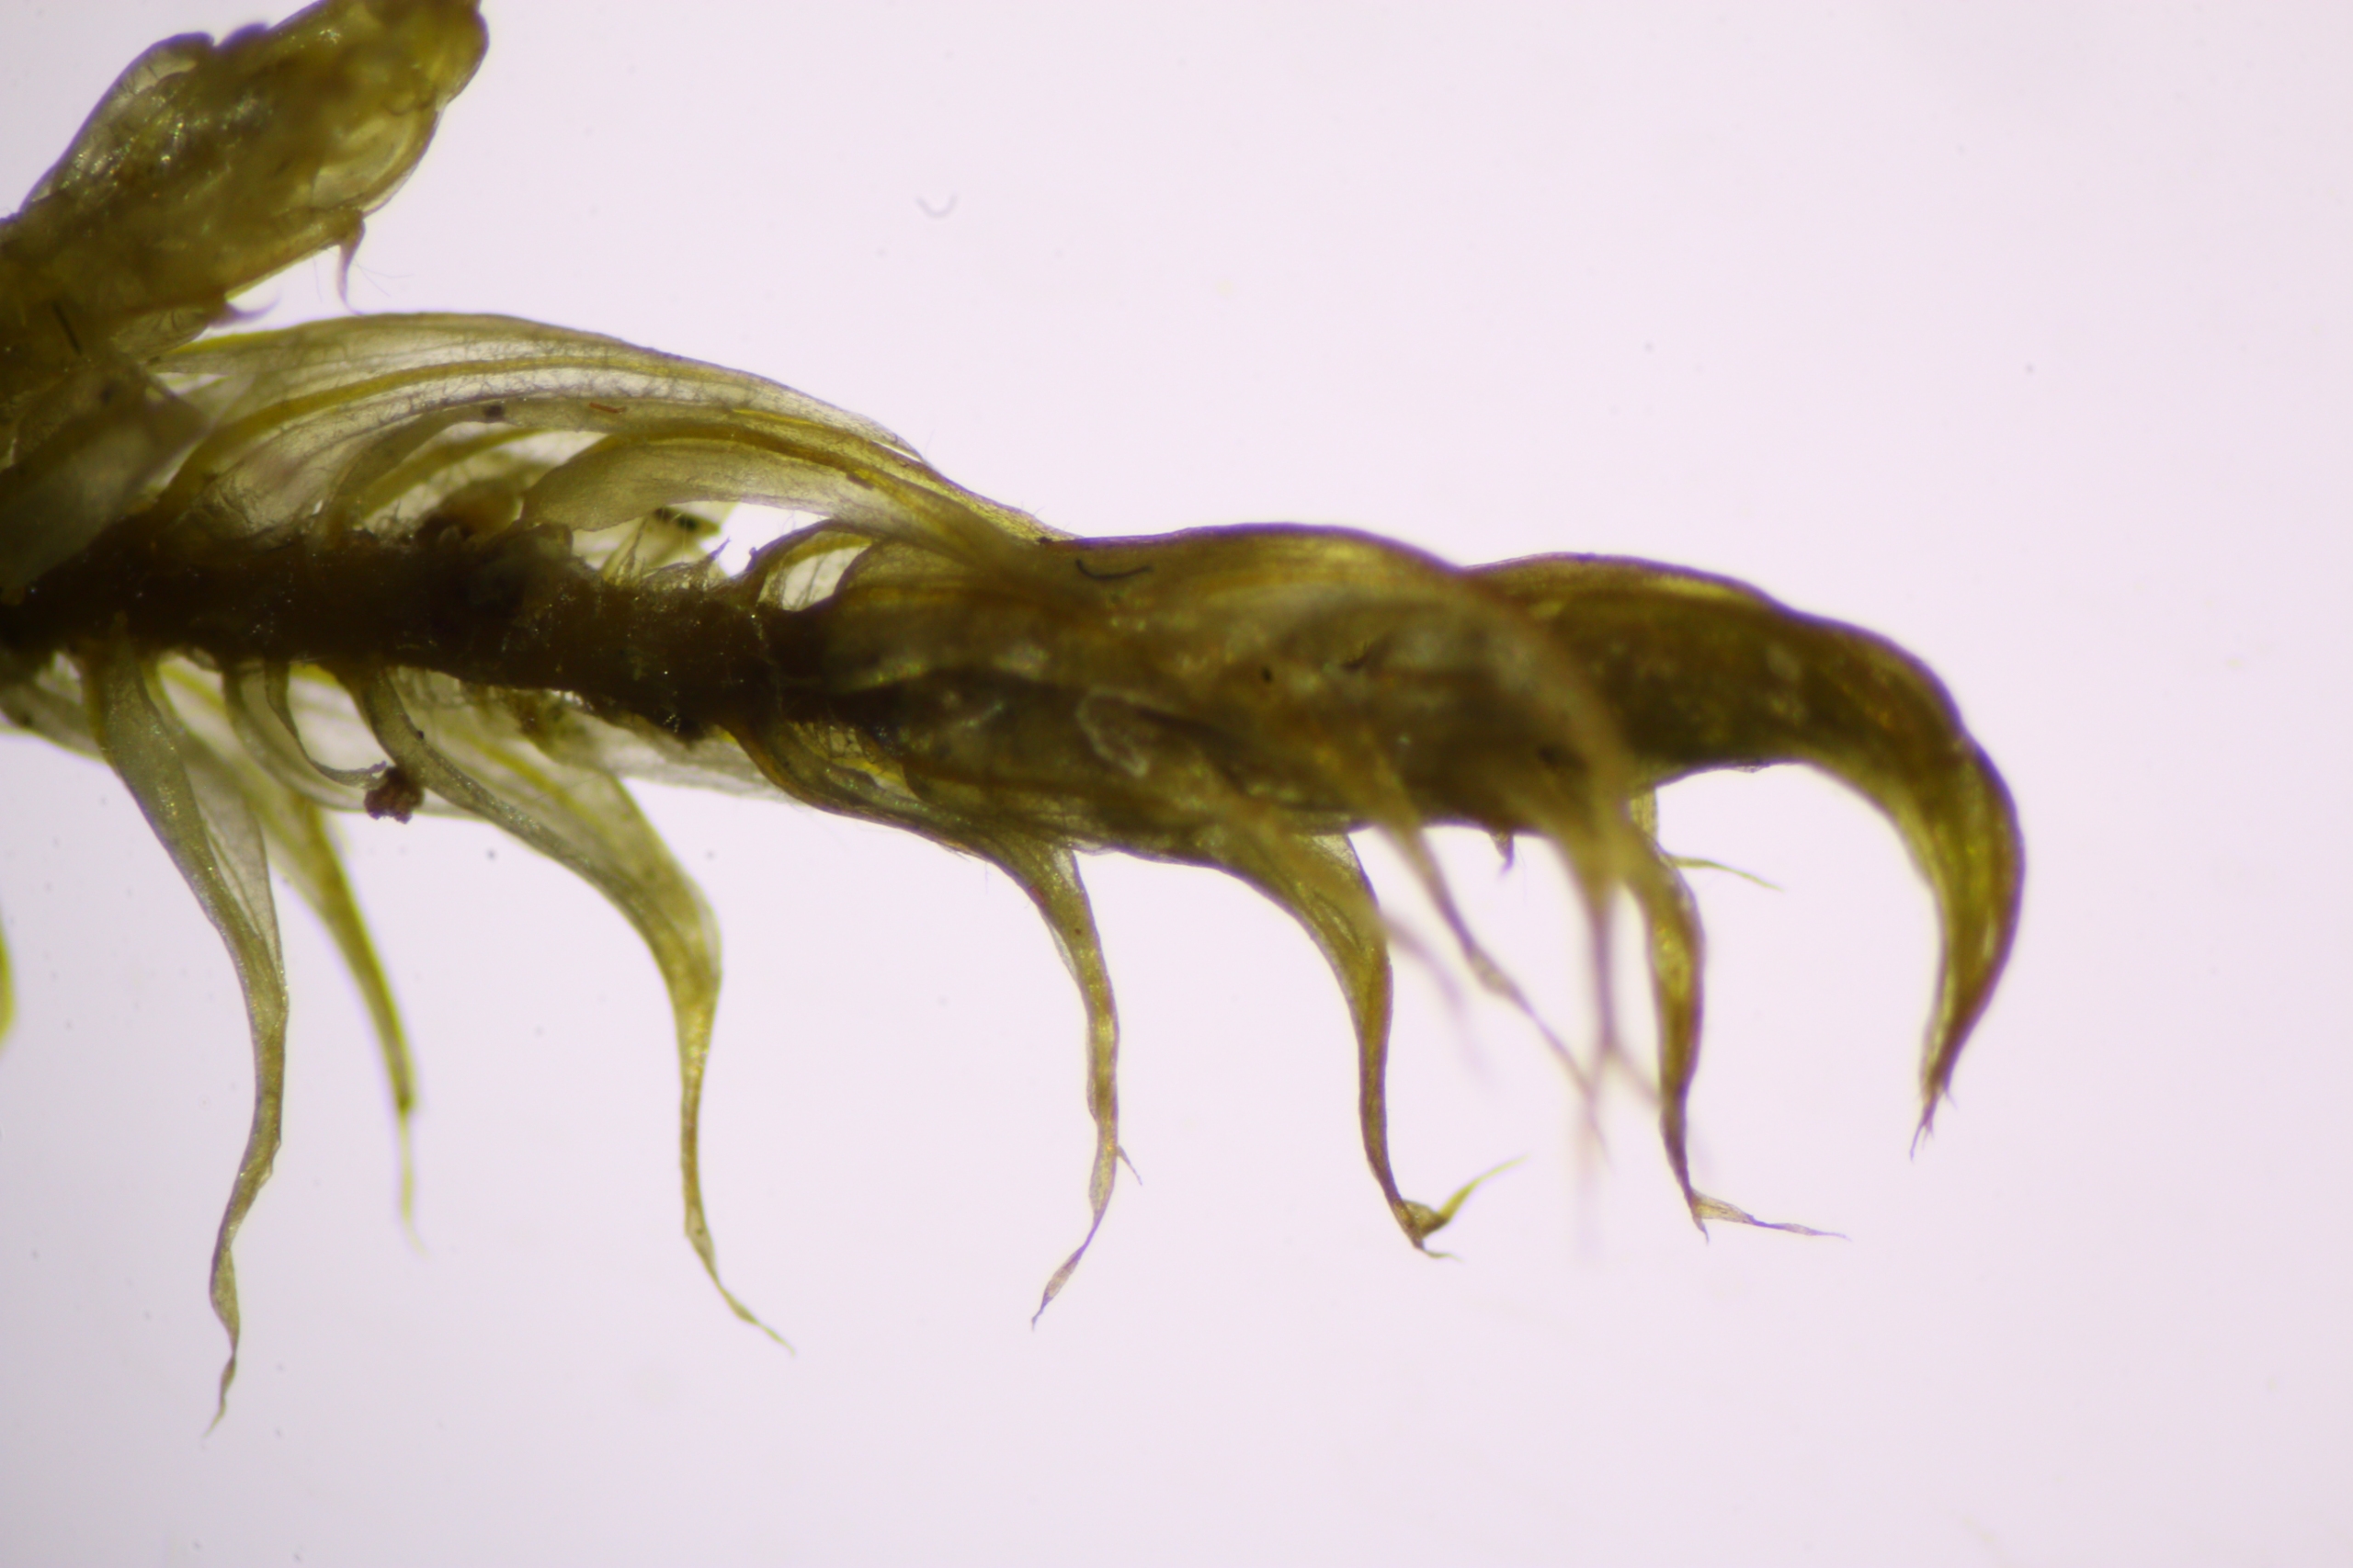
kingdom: Plantae
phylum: Bryophyta
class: Bryopsida
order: Hypnales
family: Amblystegiaceae
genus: Palustriella
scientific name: Palustriella falcata
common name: Fågrenet vældmos
